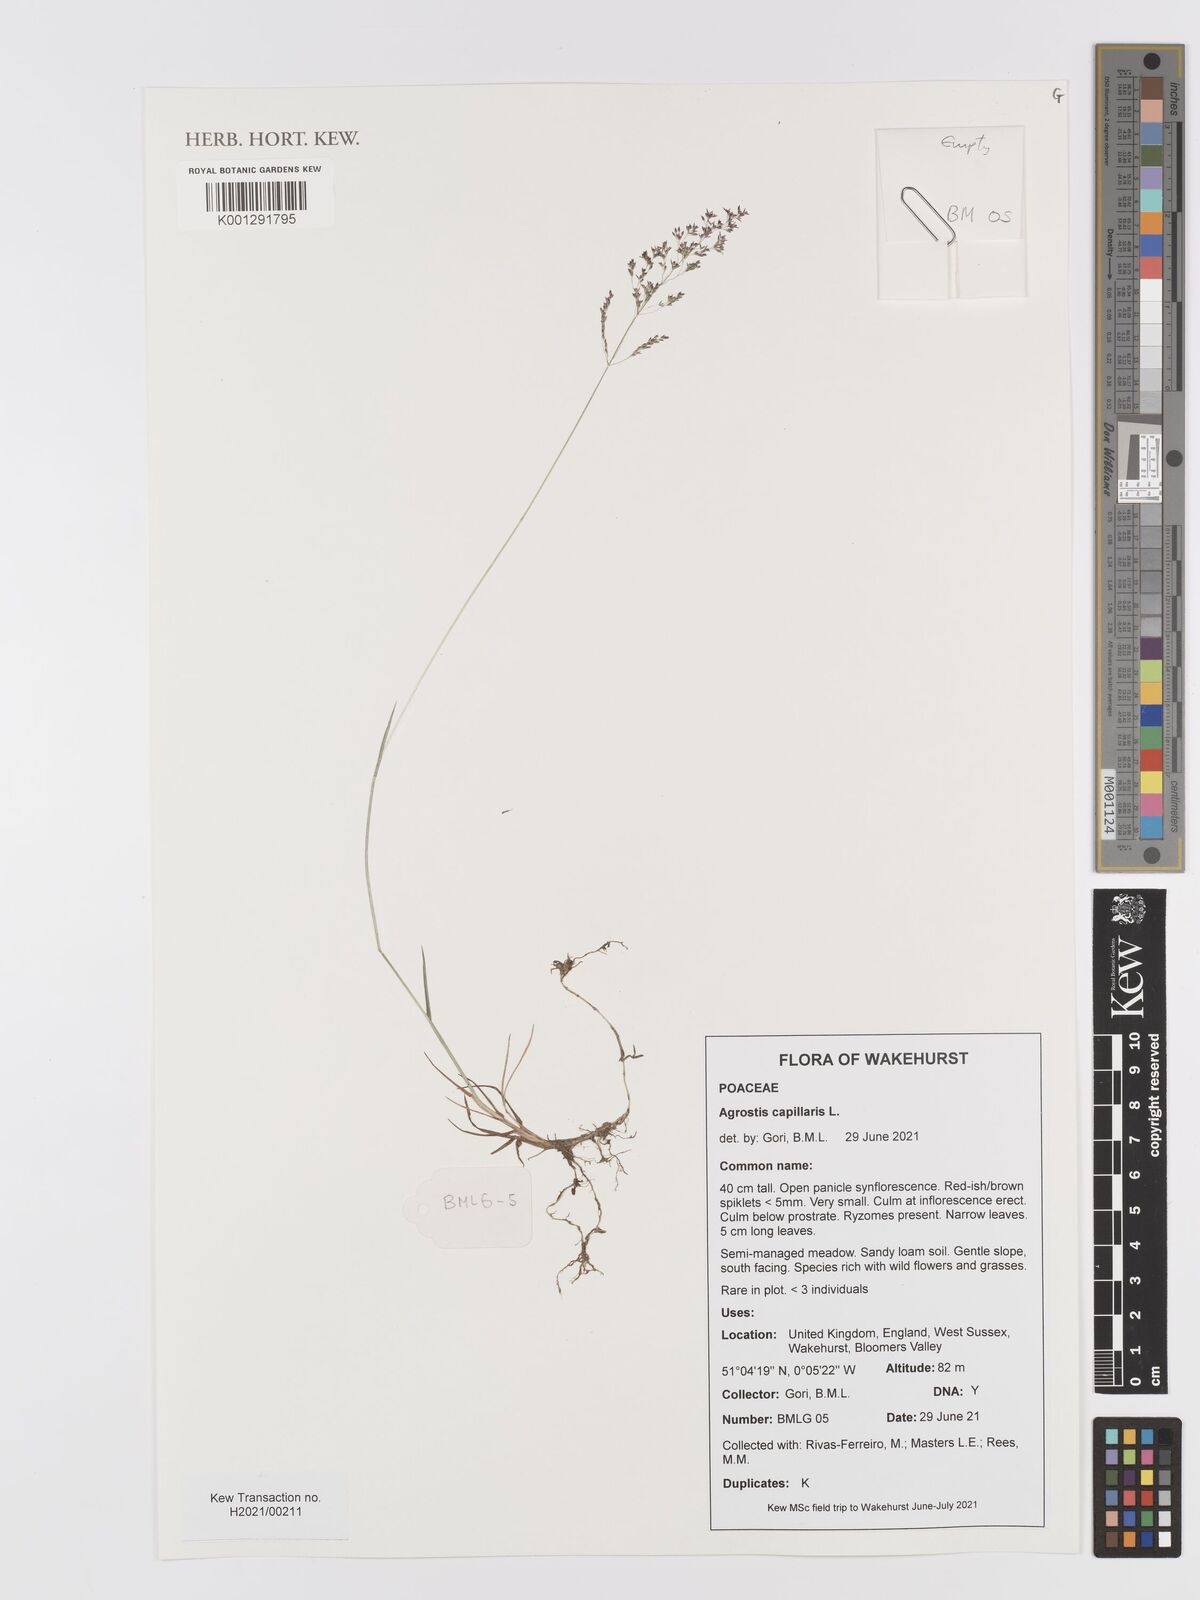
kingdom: Plantae
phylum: Tracheophyta
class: Liliopsida
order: Poales
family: Poaceae
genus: Agrostis
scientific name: Agrostis capillaris
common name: Colonial bentgrass
